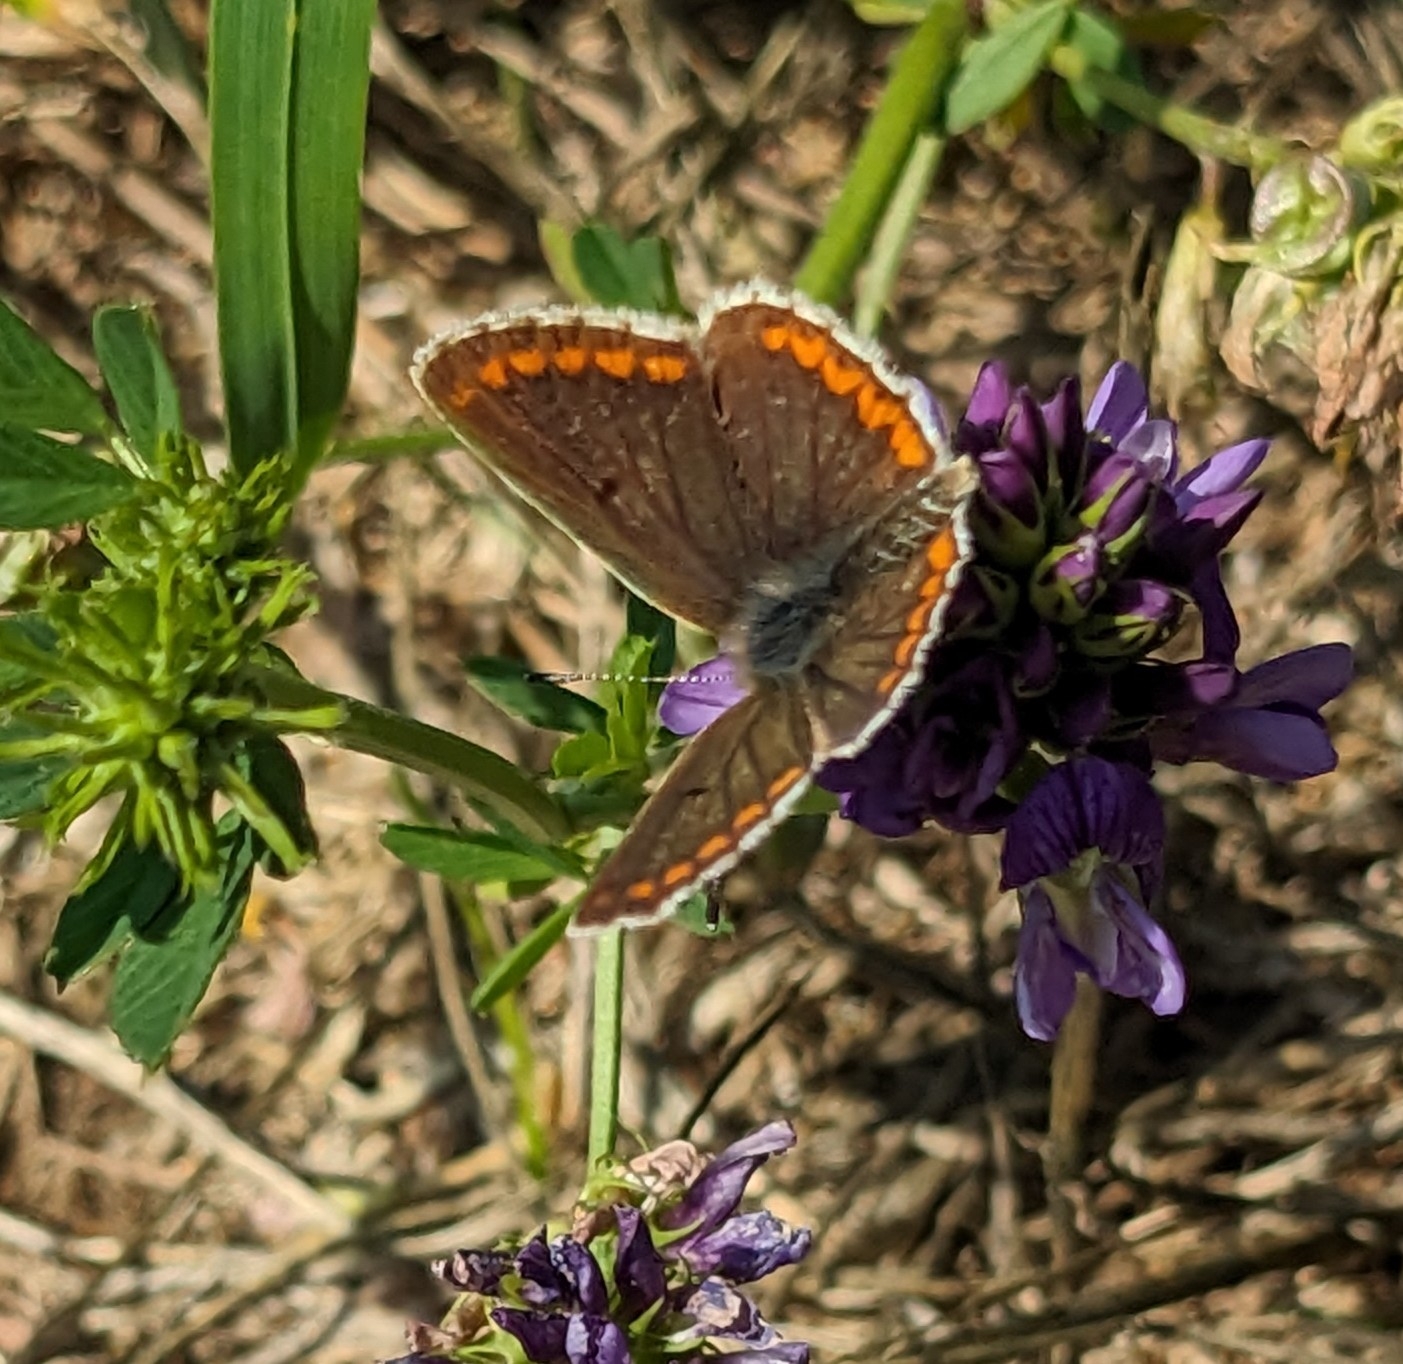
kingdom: Animalia
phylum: Arthropoda
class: Insecta
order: Lepidoptera
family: Lycaenidae
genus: Aricia
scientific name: Aricia agestis
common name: Rødplettet blåfugl
